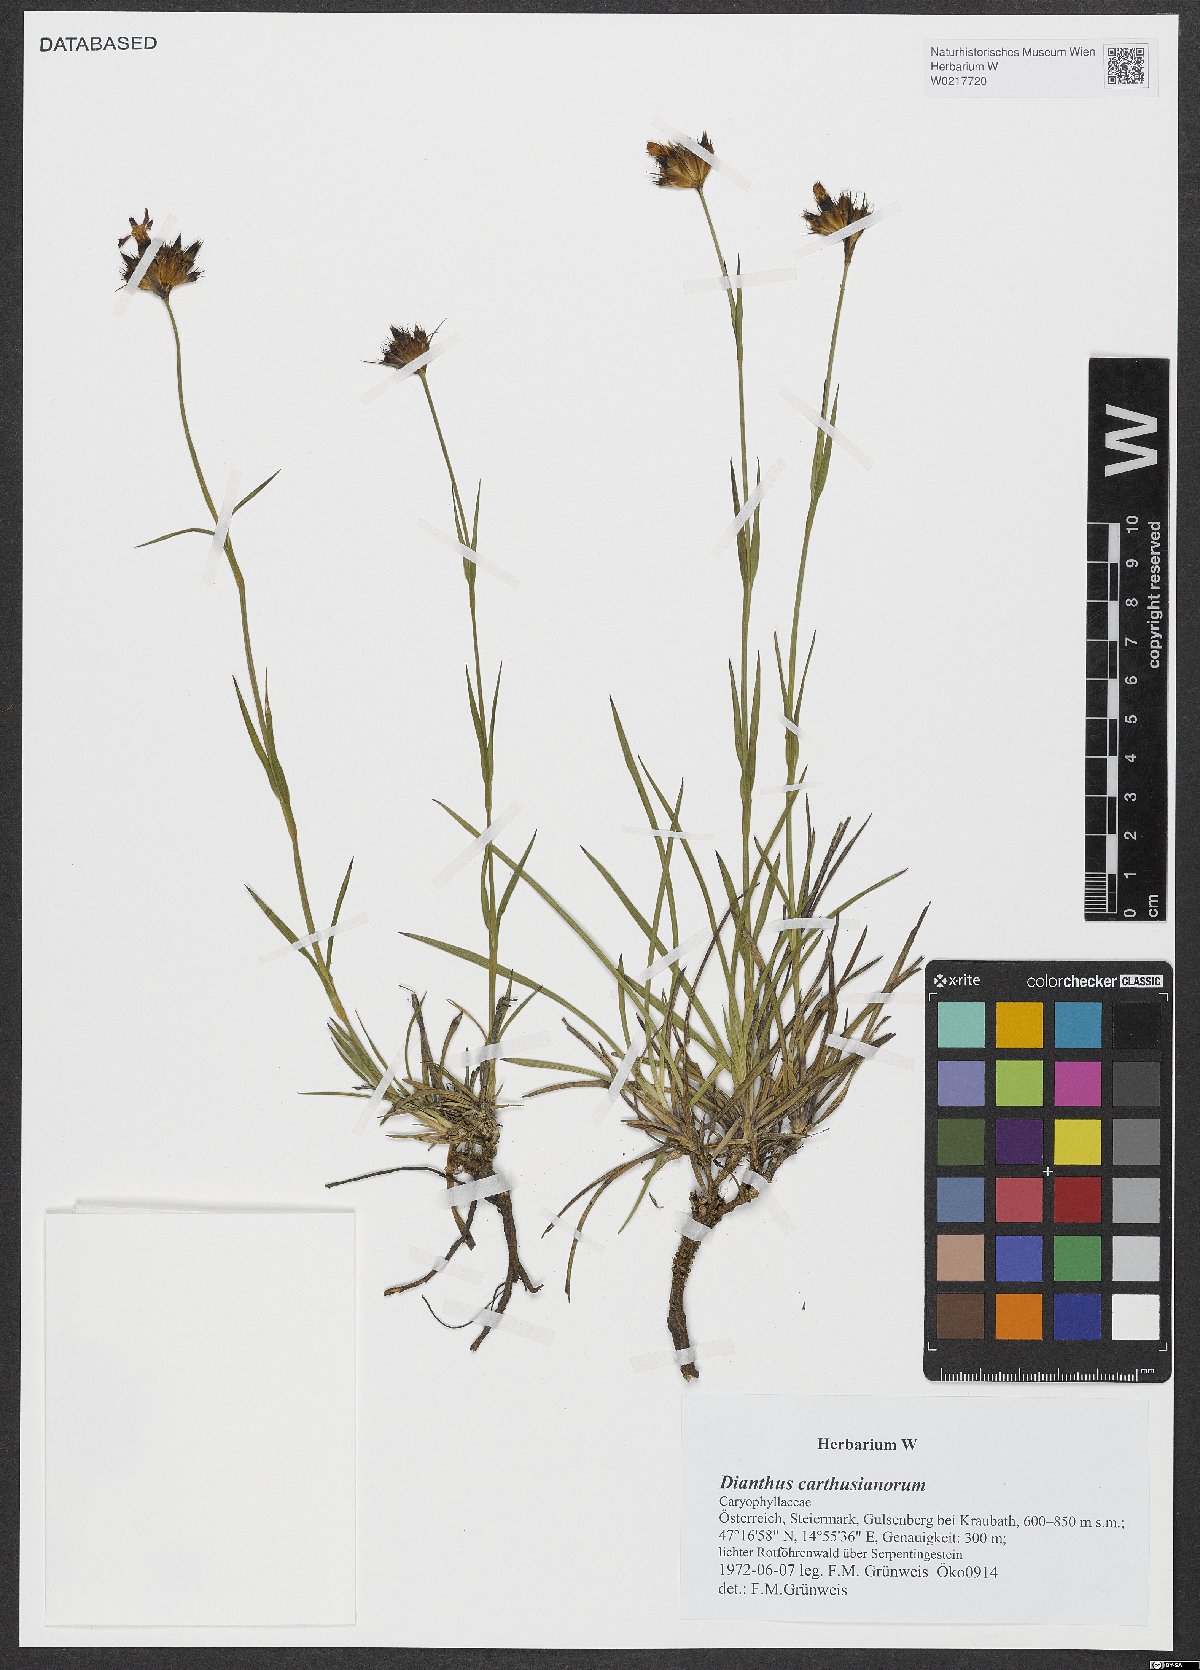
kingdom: Plantae
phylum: Tracheophyta
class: Magnoliopsida
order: Caryophyllales
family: Caryophyllaceae
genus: Dianthus
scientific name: Dianthus carthusianorum
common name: Carthusian pink
